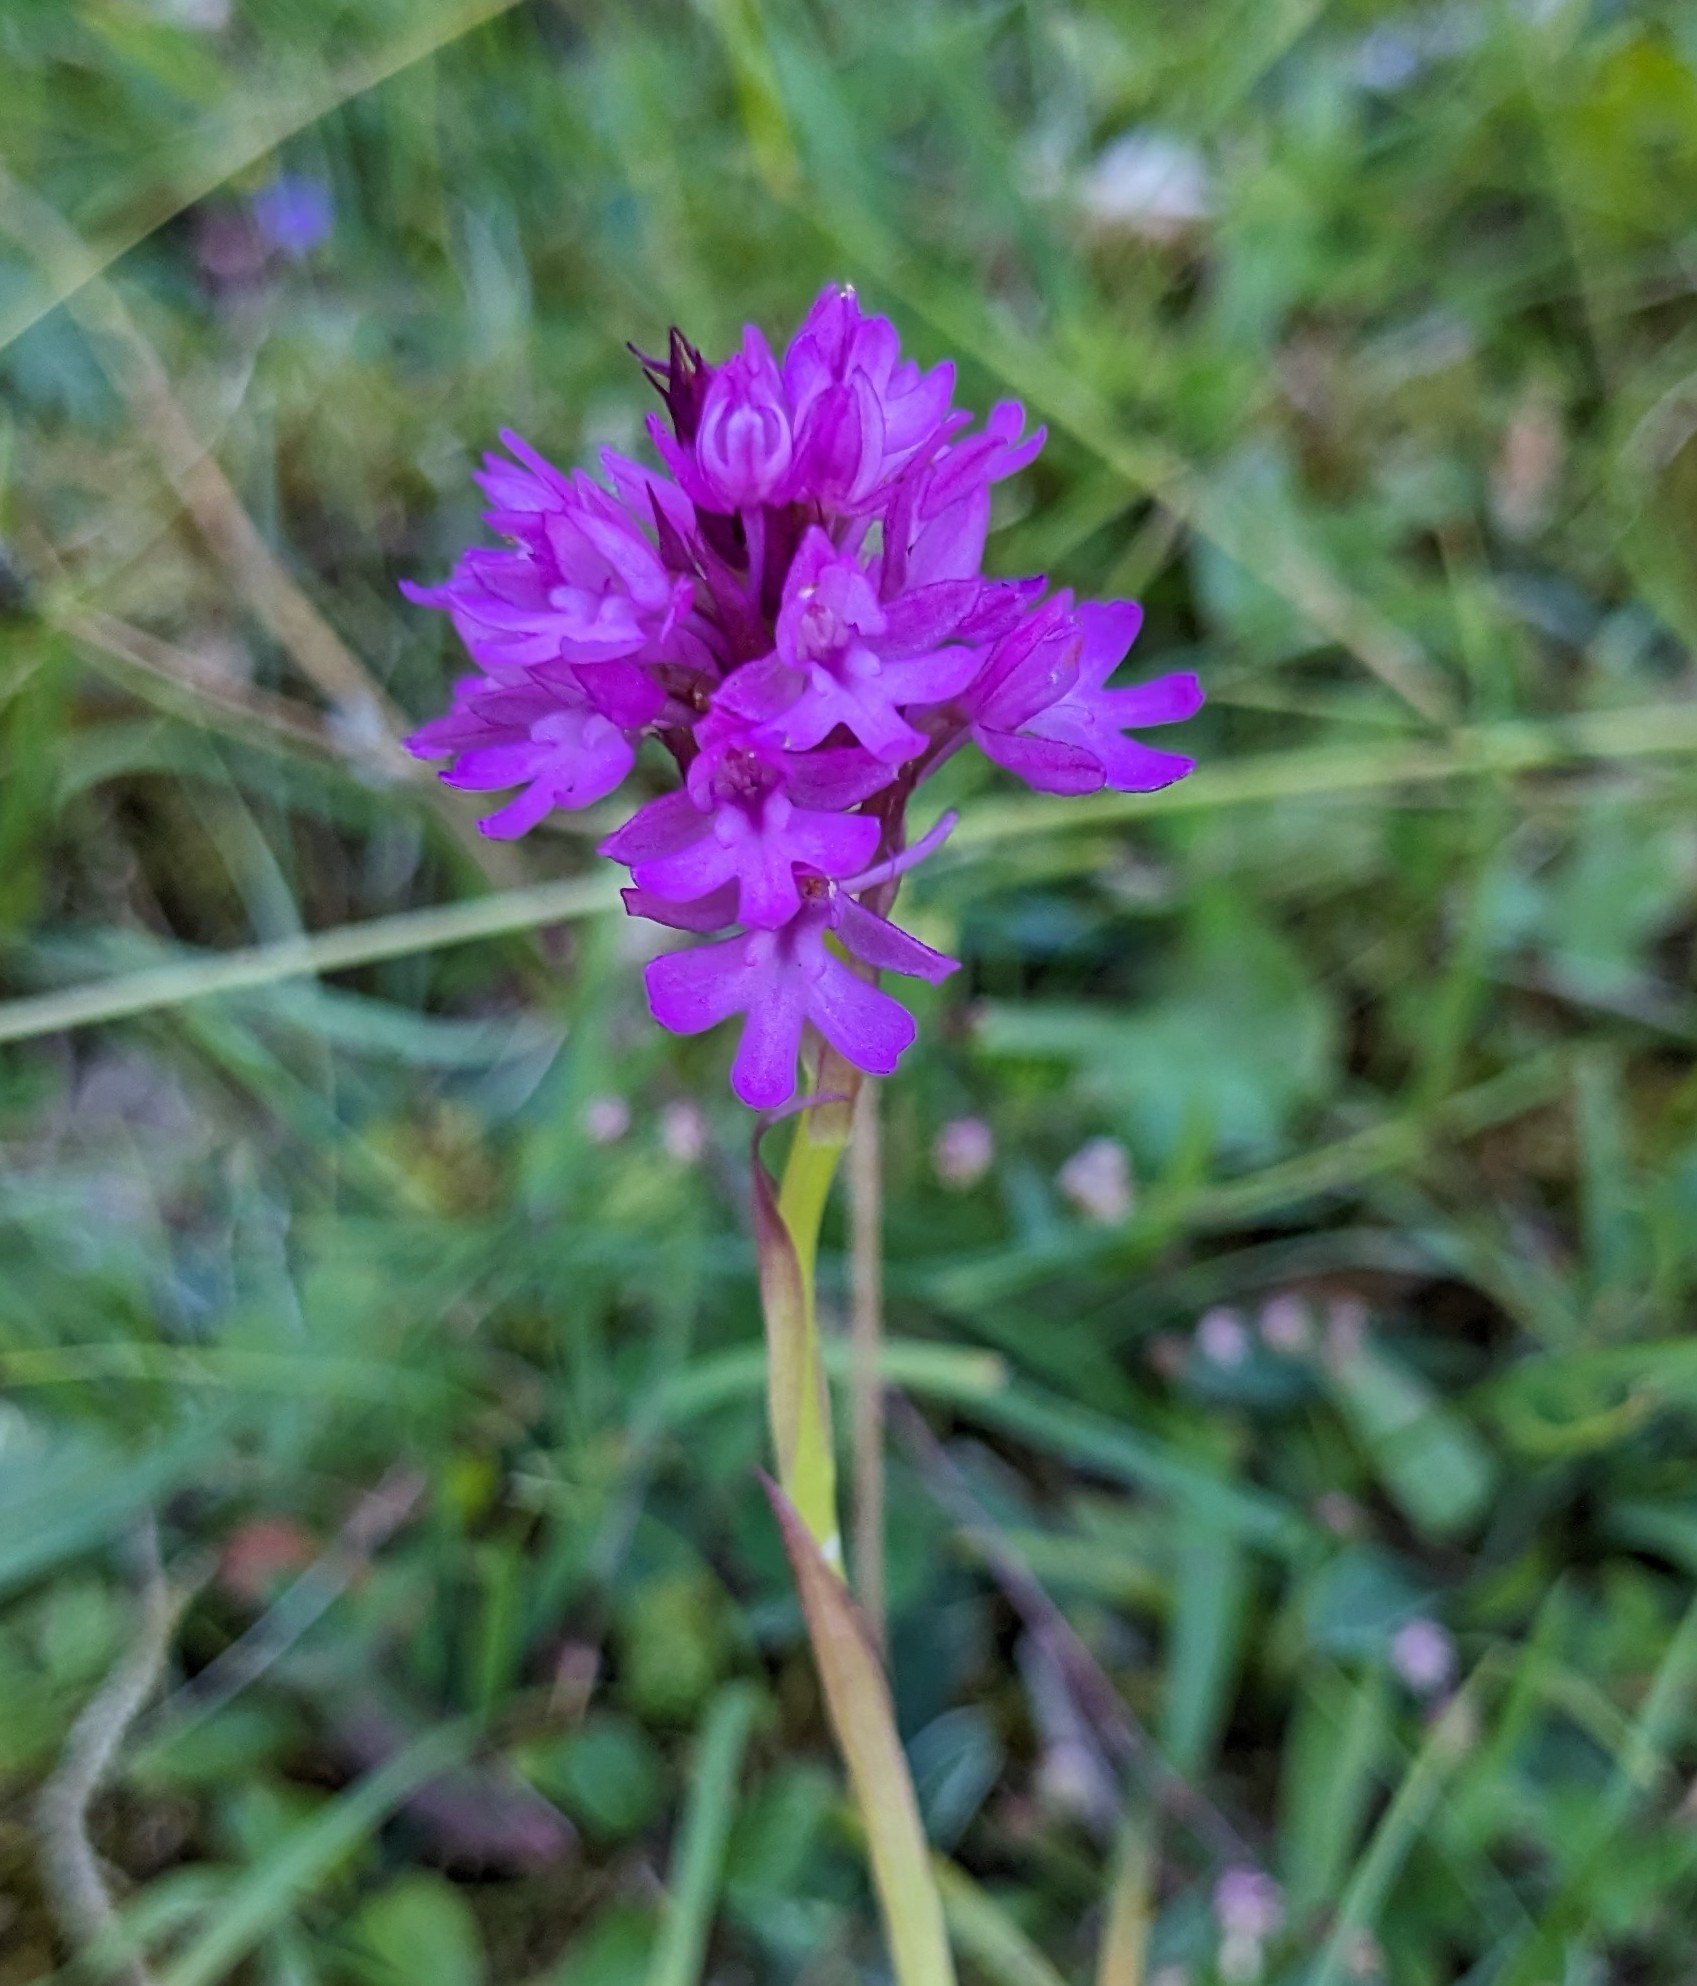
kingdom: Plantae
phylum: Tracheophyta
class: Liliopsida
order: Asparagales
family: Orchidaceae
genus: Anacamptis
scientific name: Anacamptis pyramidalis
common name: Horndrager
